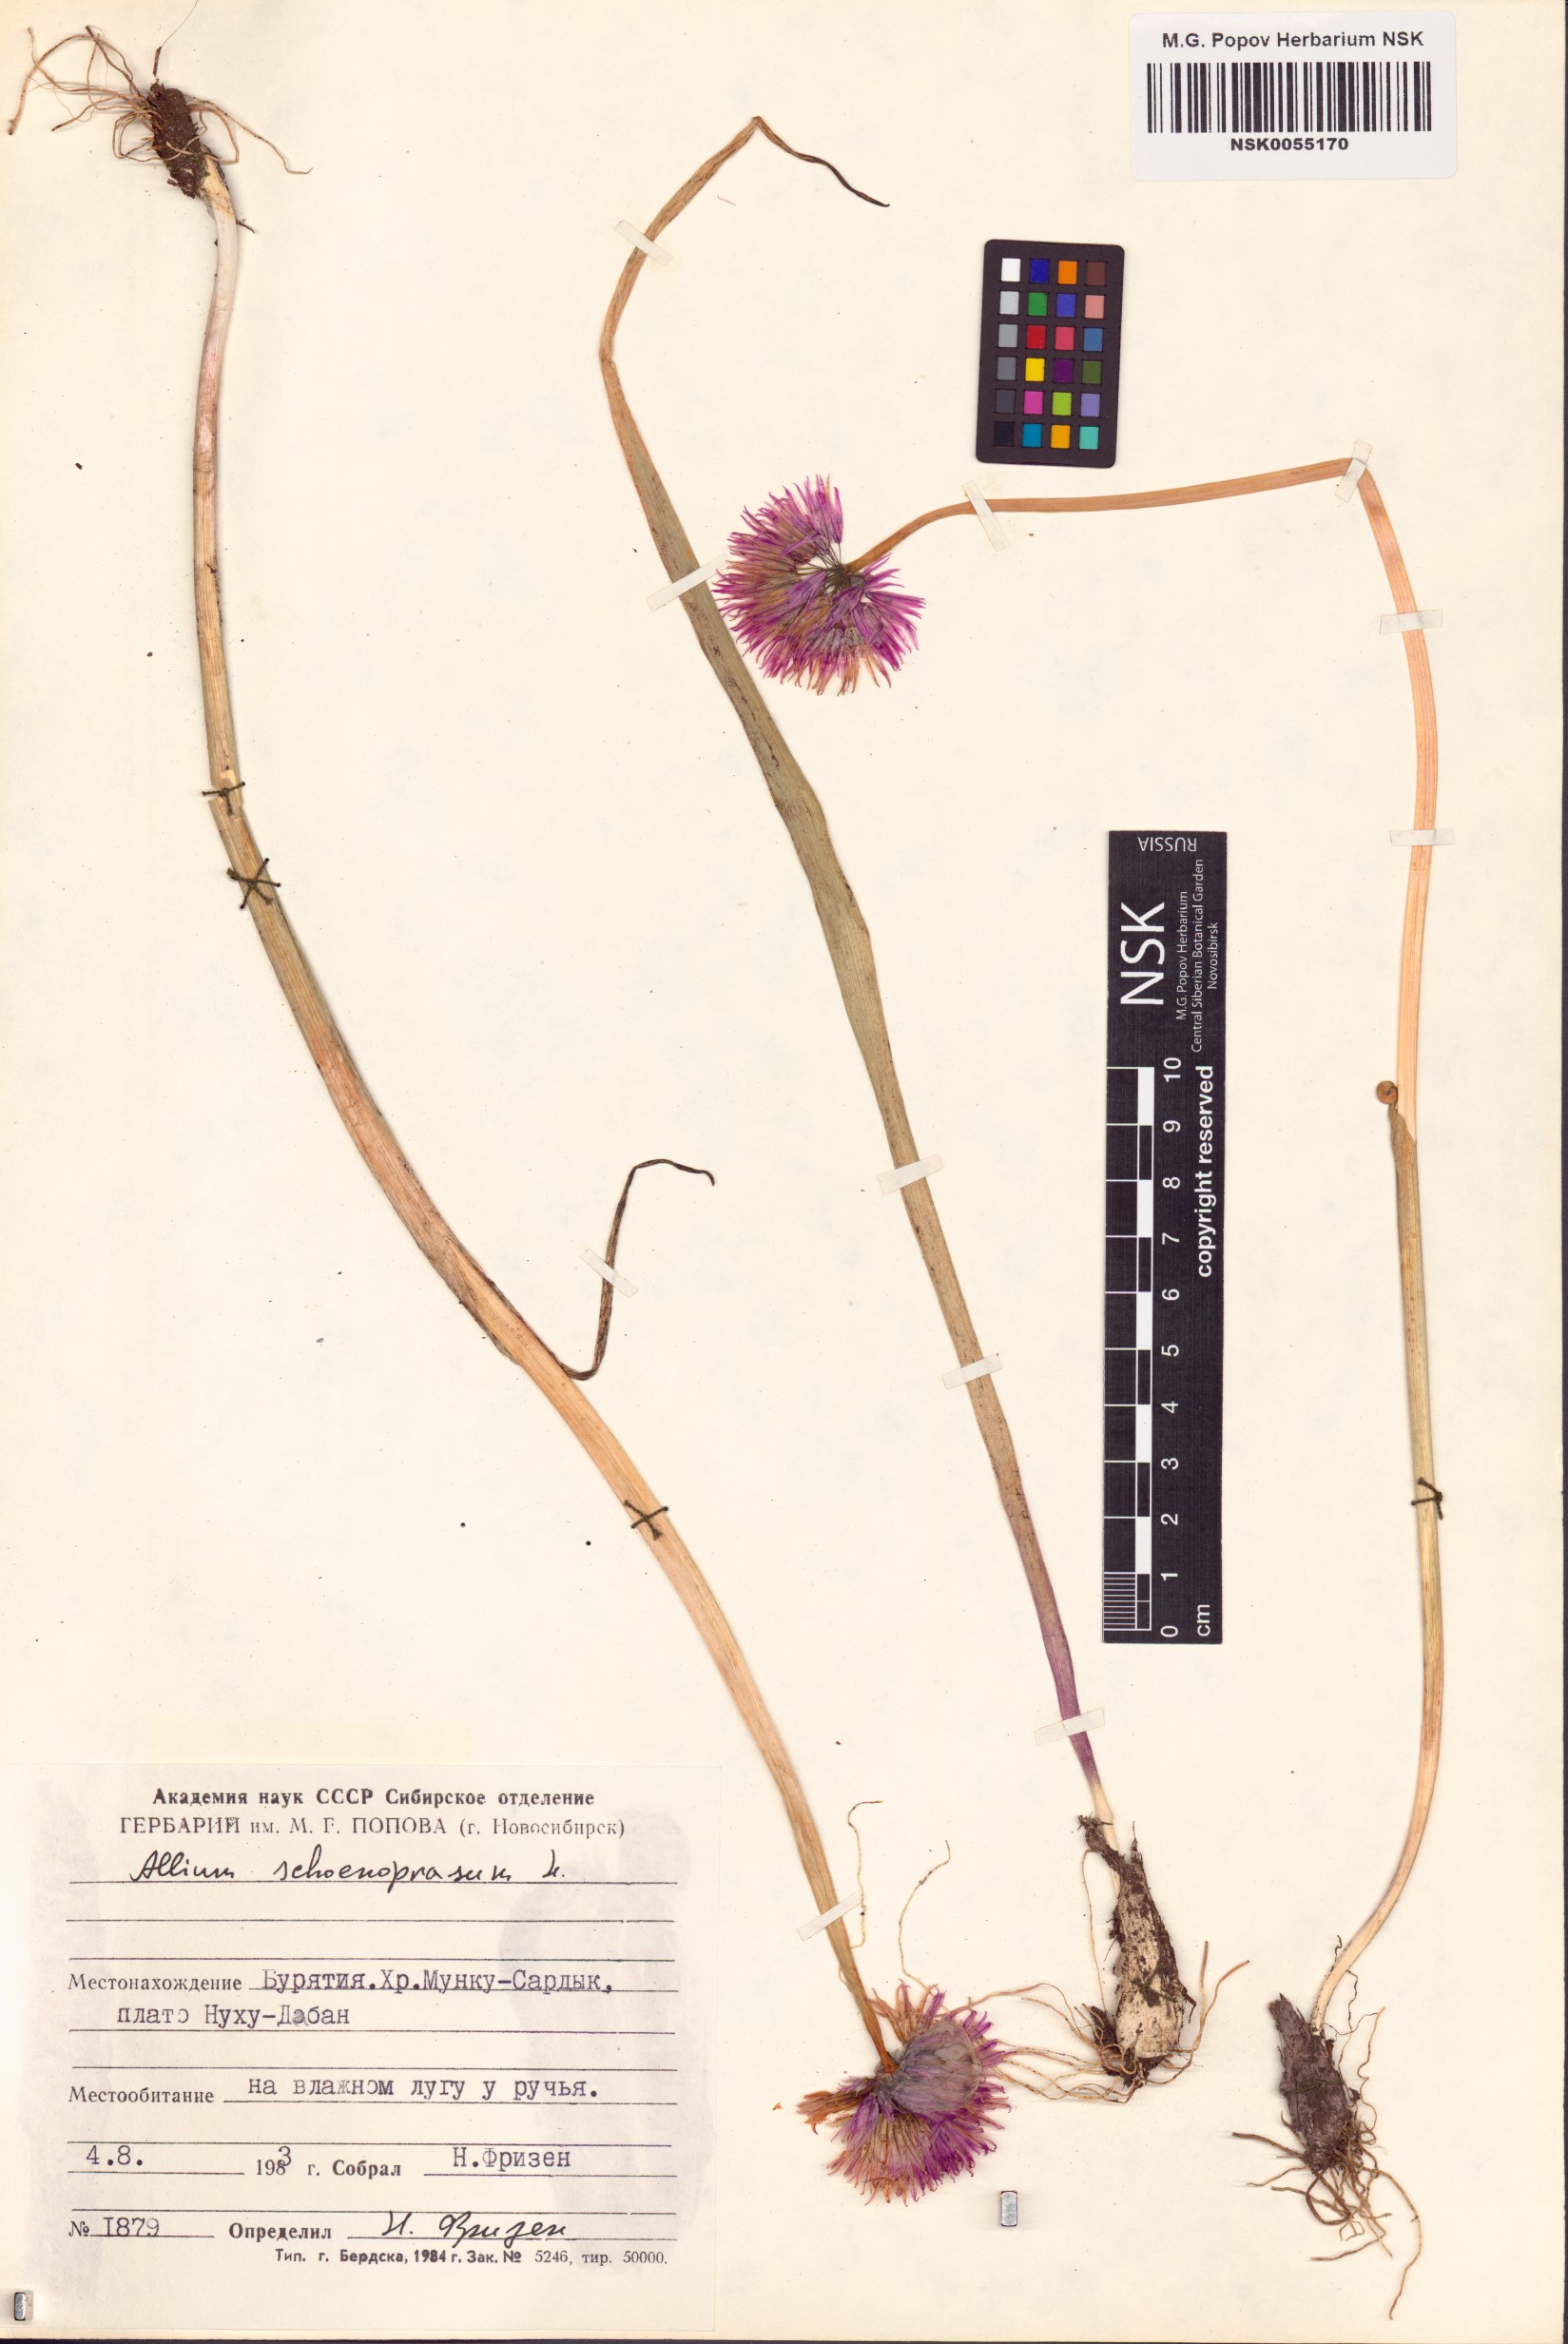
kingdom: Plantae
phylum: Tracheophyta
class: Liliopsida
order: Asparagales
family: Amaryllidaceae
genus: Allium
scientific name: Allium schoenoprasum
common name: Chives
